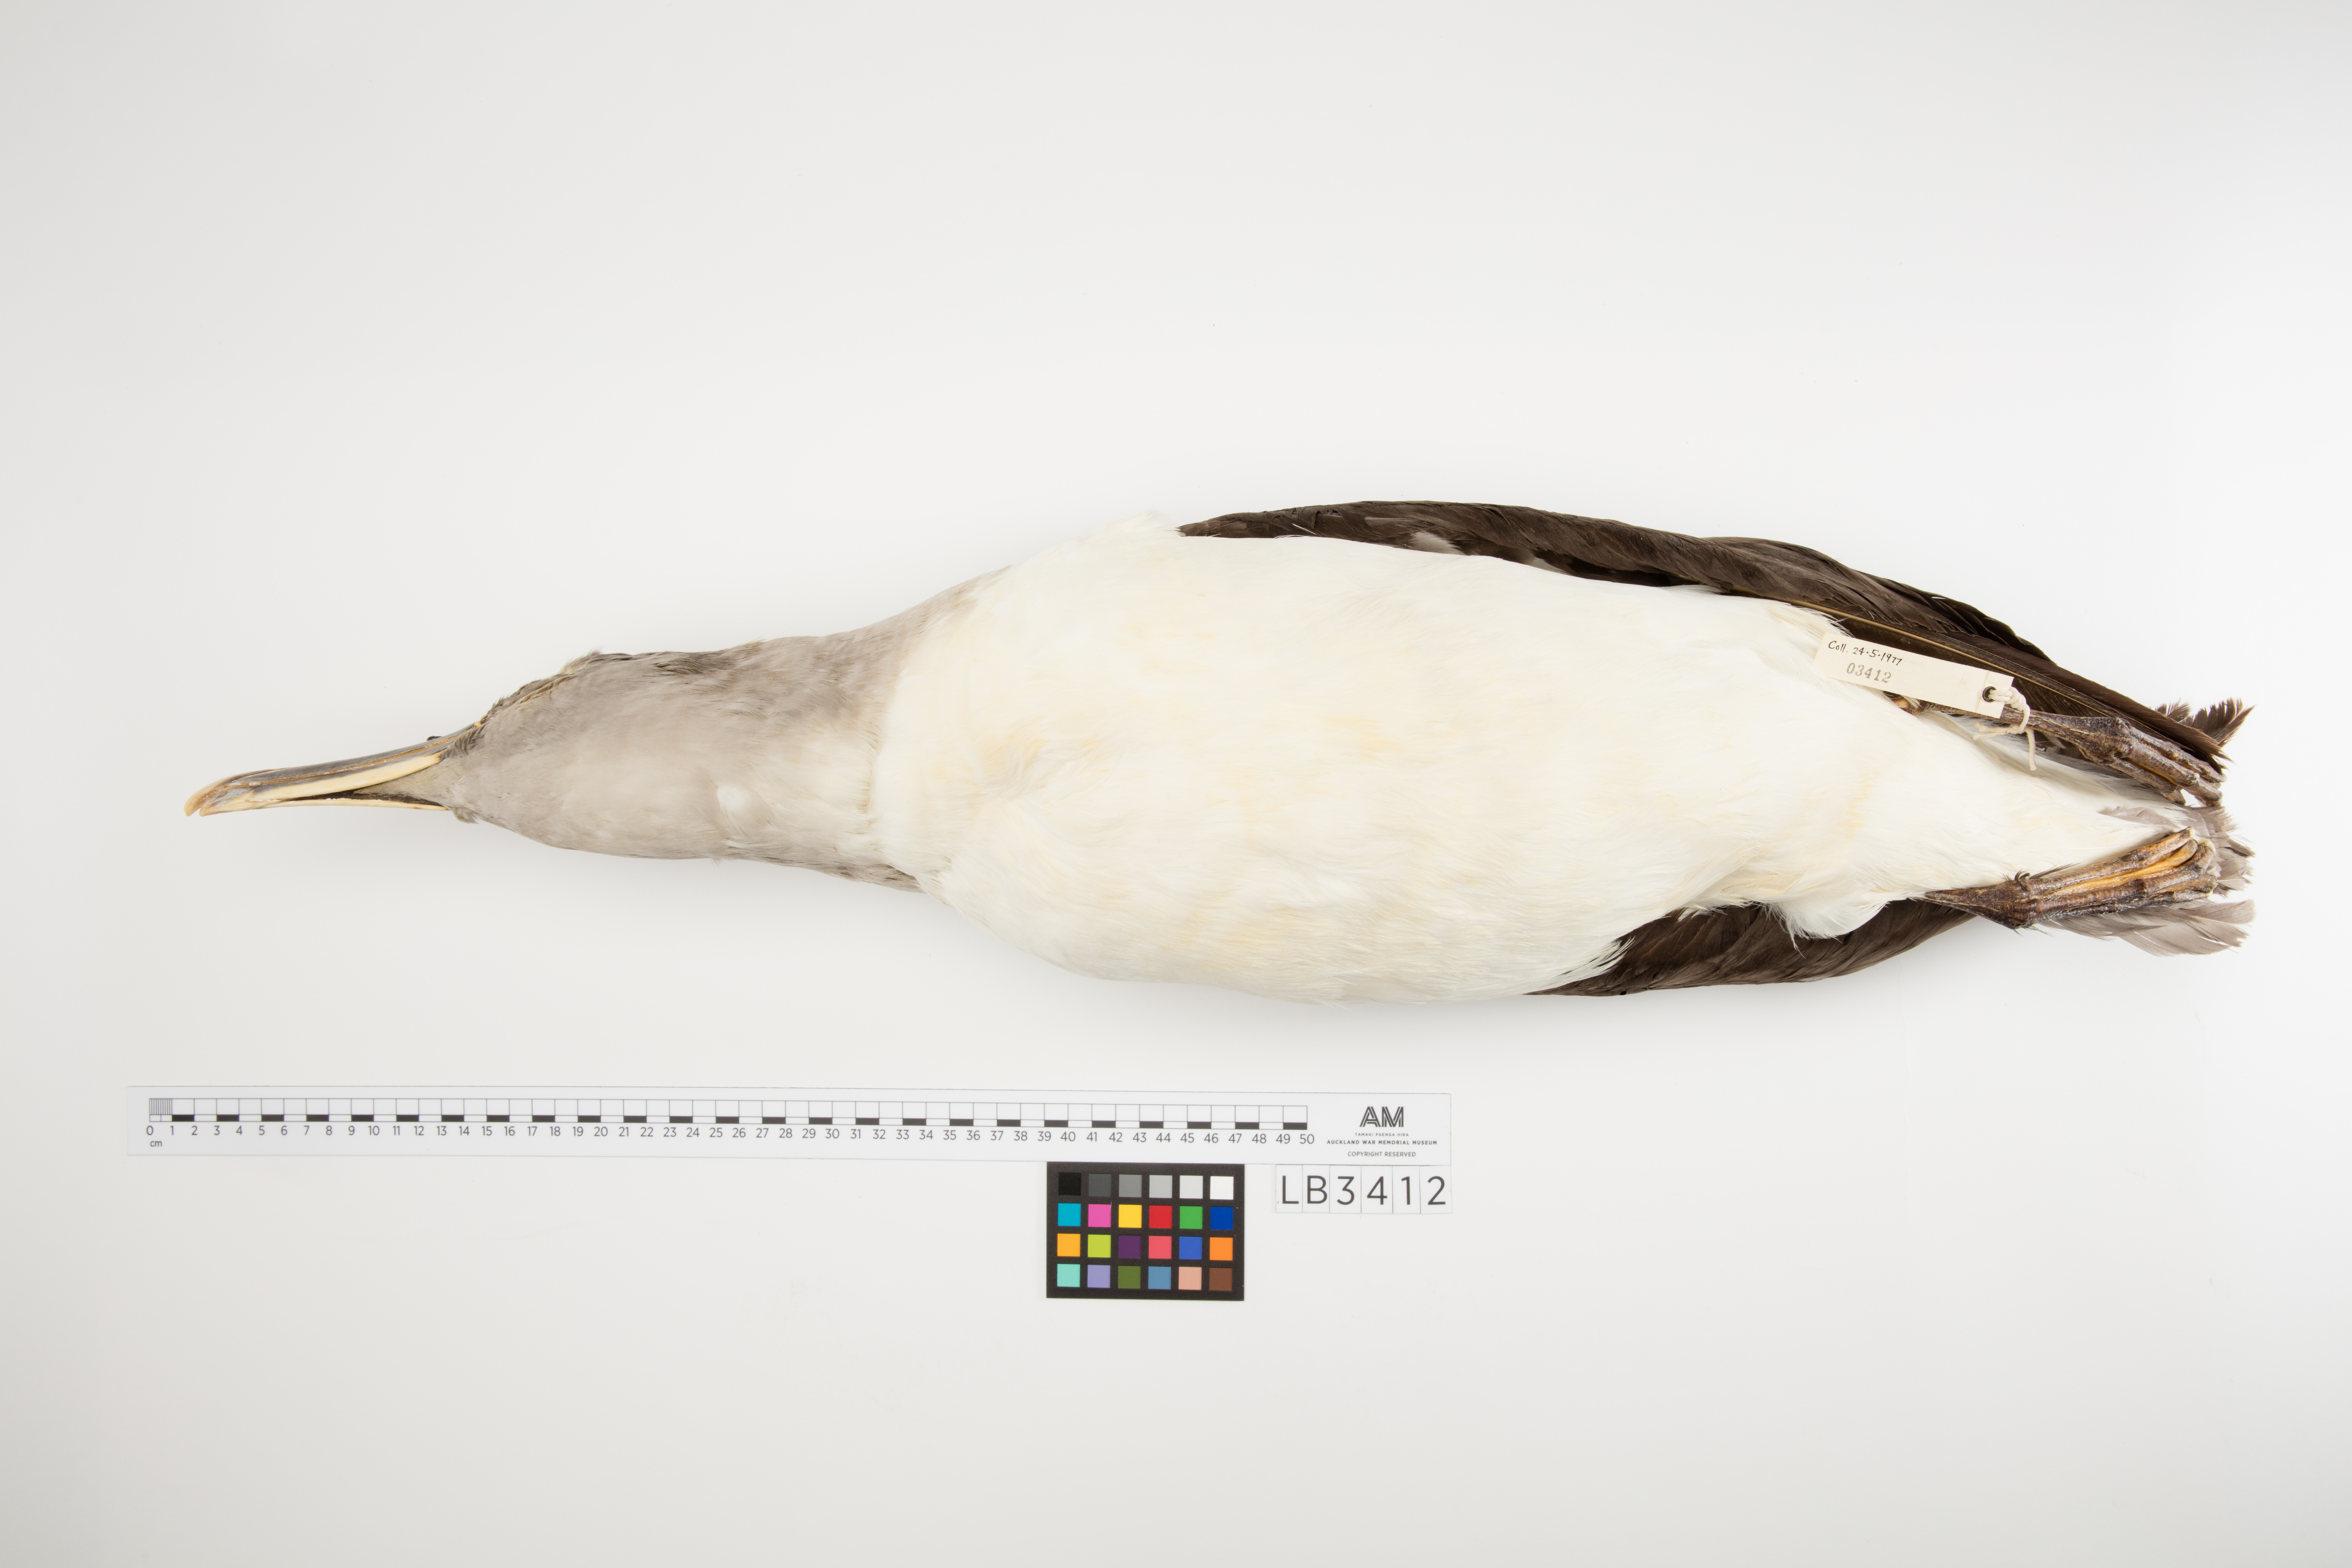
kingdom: Animalia
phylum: Chordata
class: Aves
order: Procellariiformes
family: Diomedeidae
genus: Thalassarche
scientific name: Thalassarche bulleri
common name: Buller's albatross
